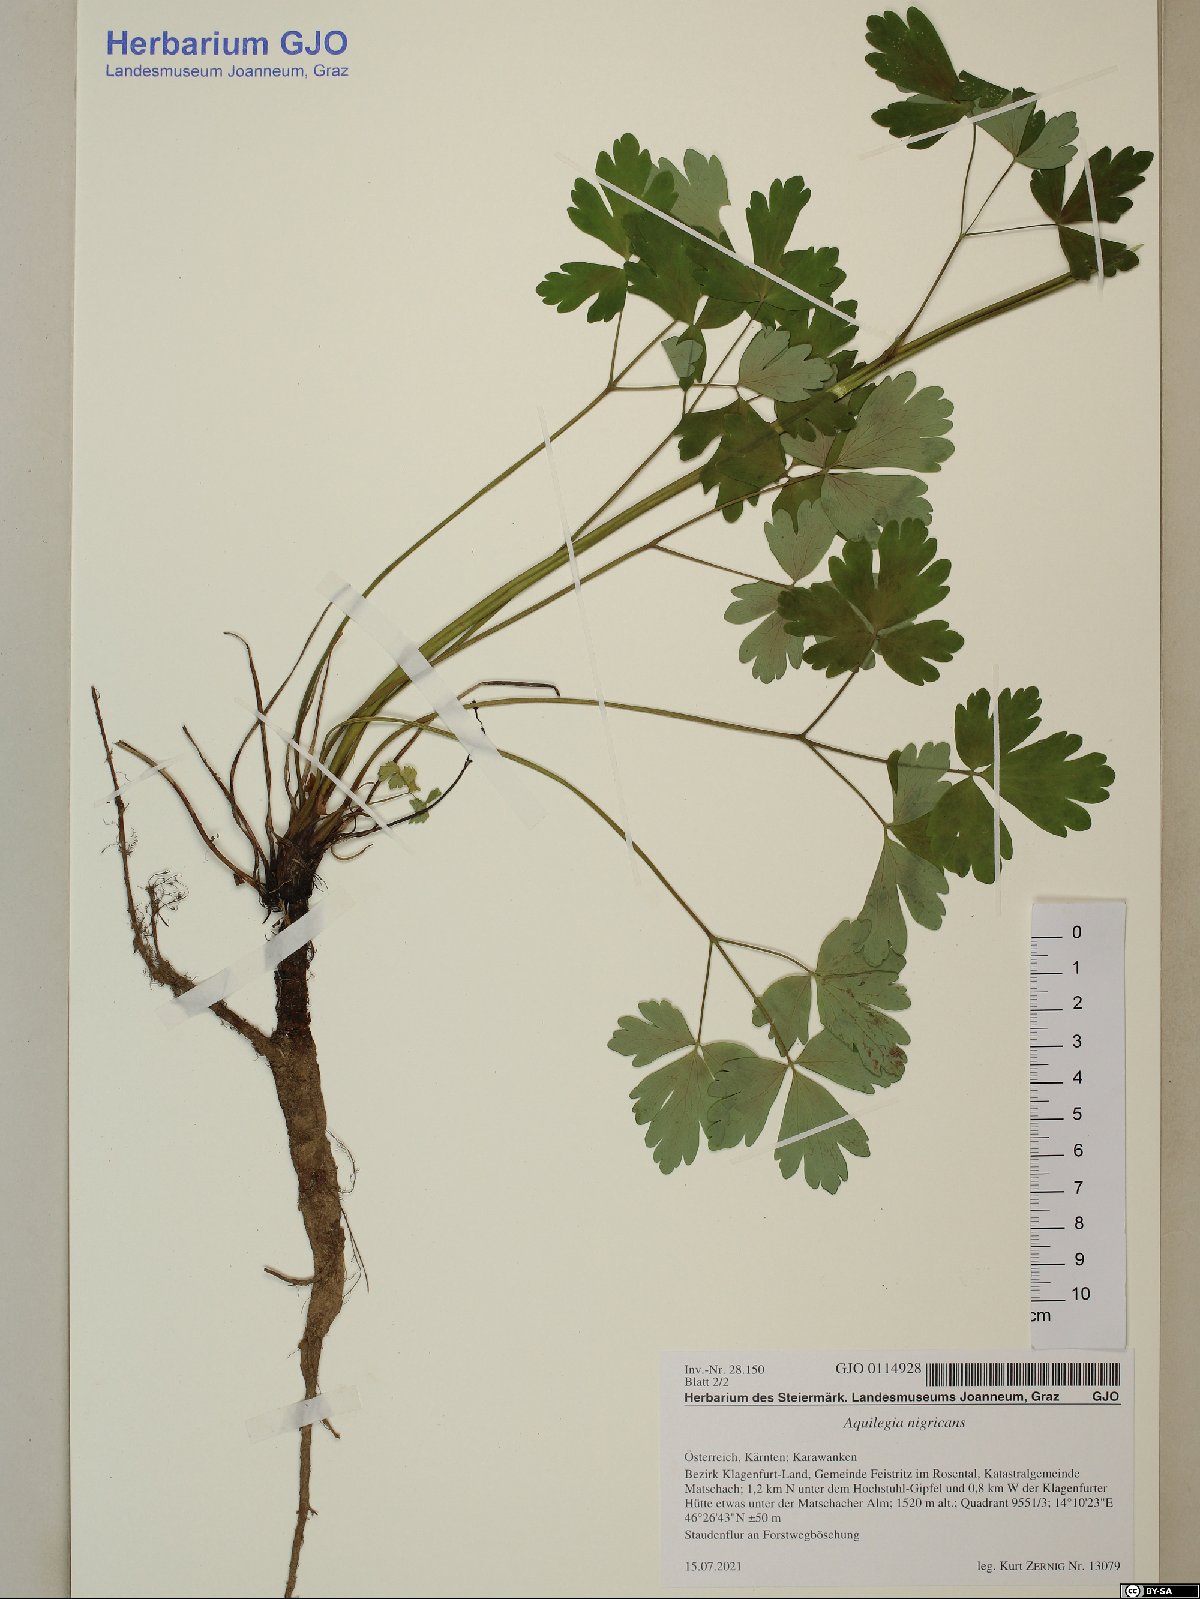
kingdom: Plantae
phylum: Tracheophyta
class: Magnoliopsida
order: Ranunculales
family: Ranunculaceae
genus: Aquilegia
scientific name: Aquilegia nigricans
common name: Bulgarian columbine
